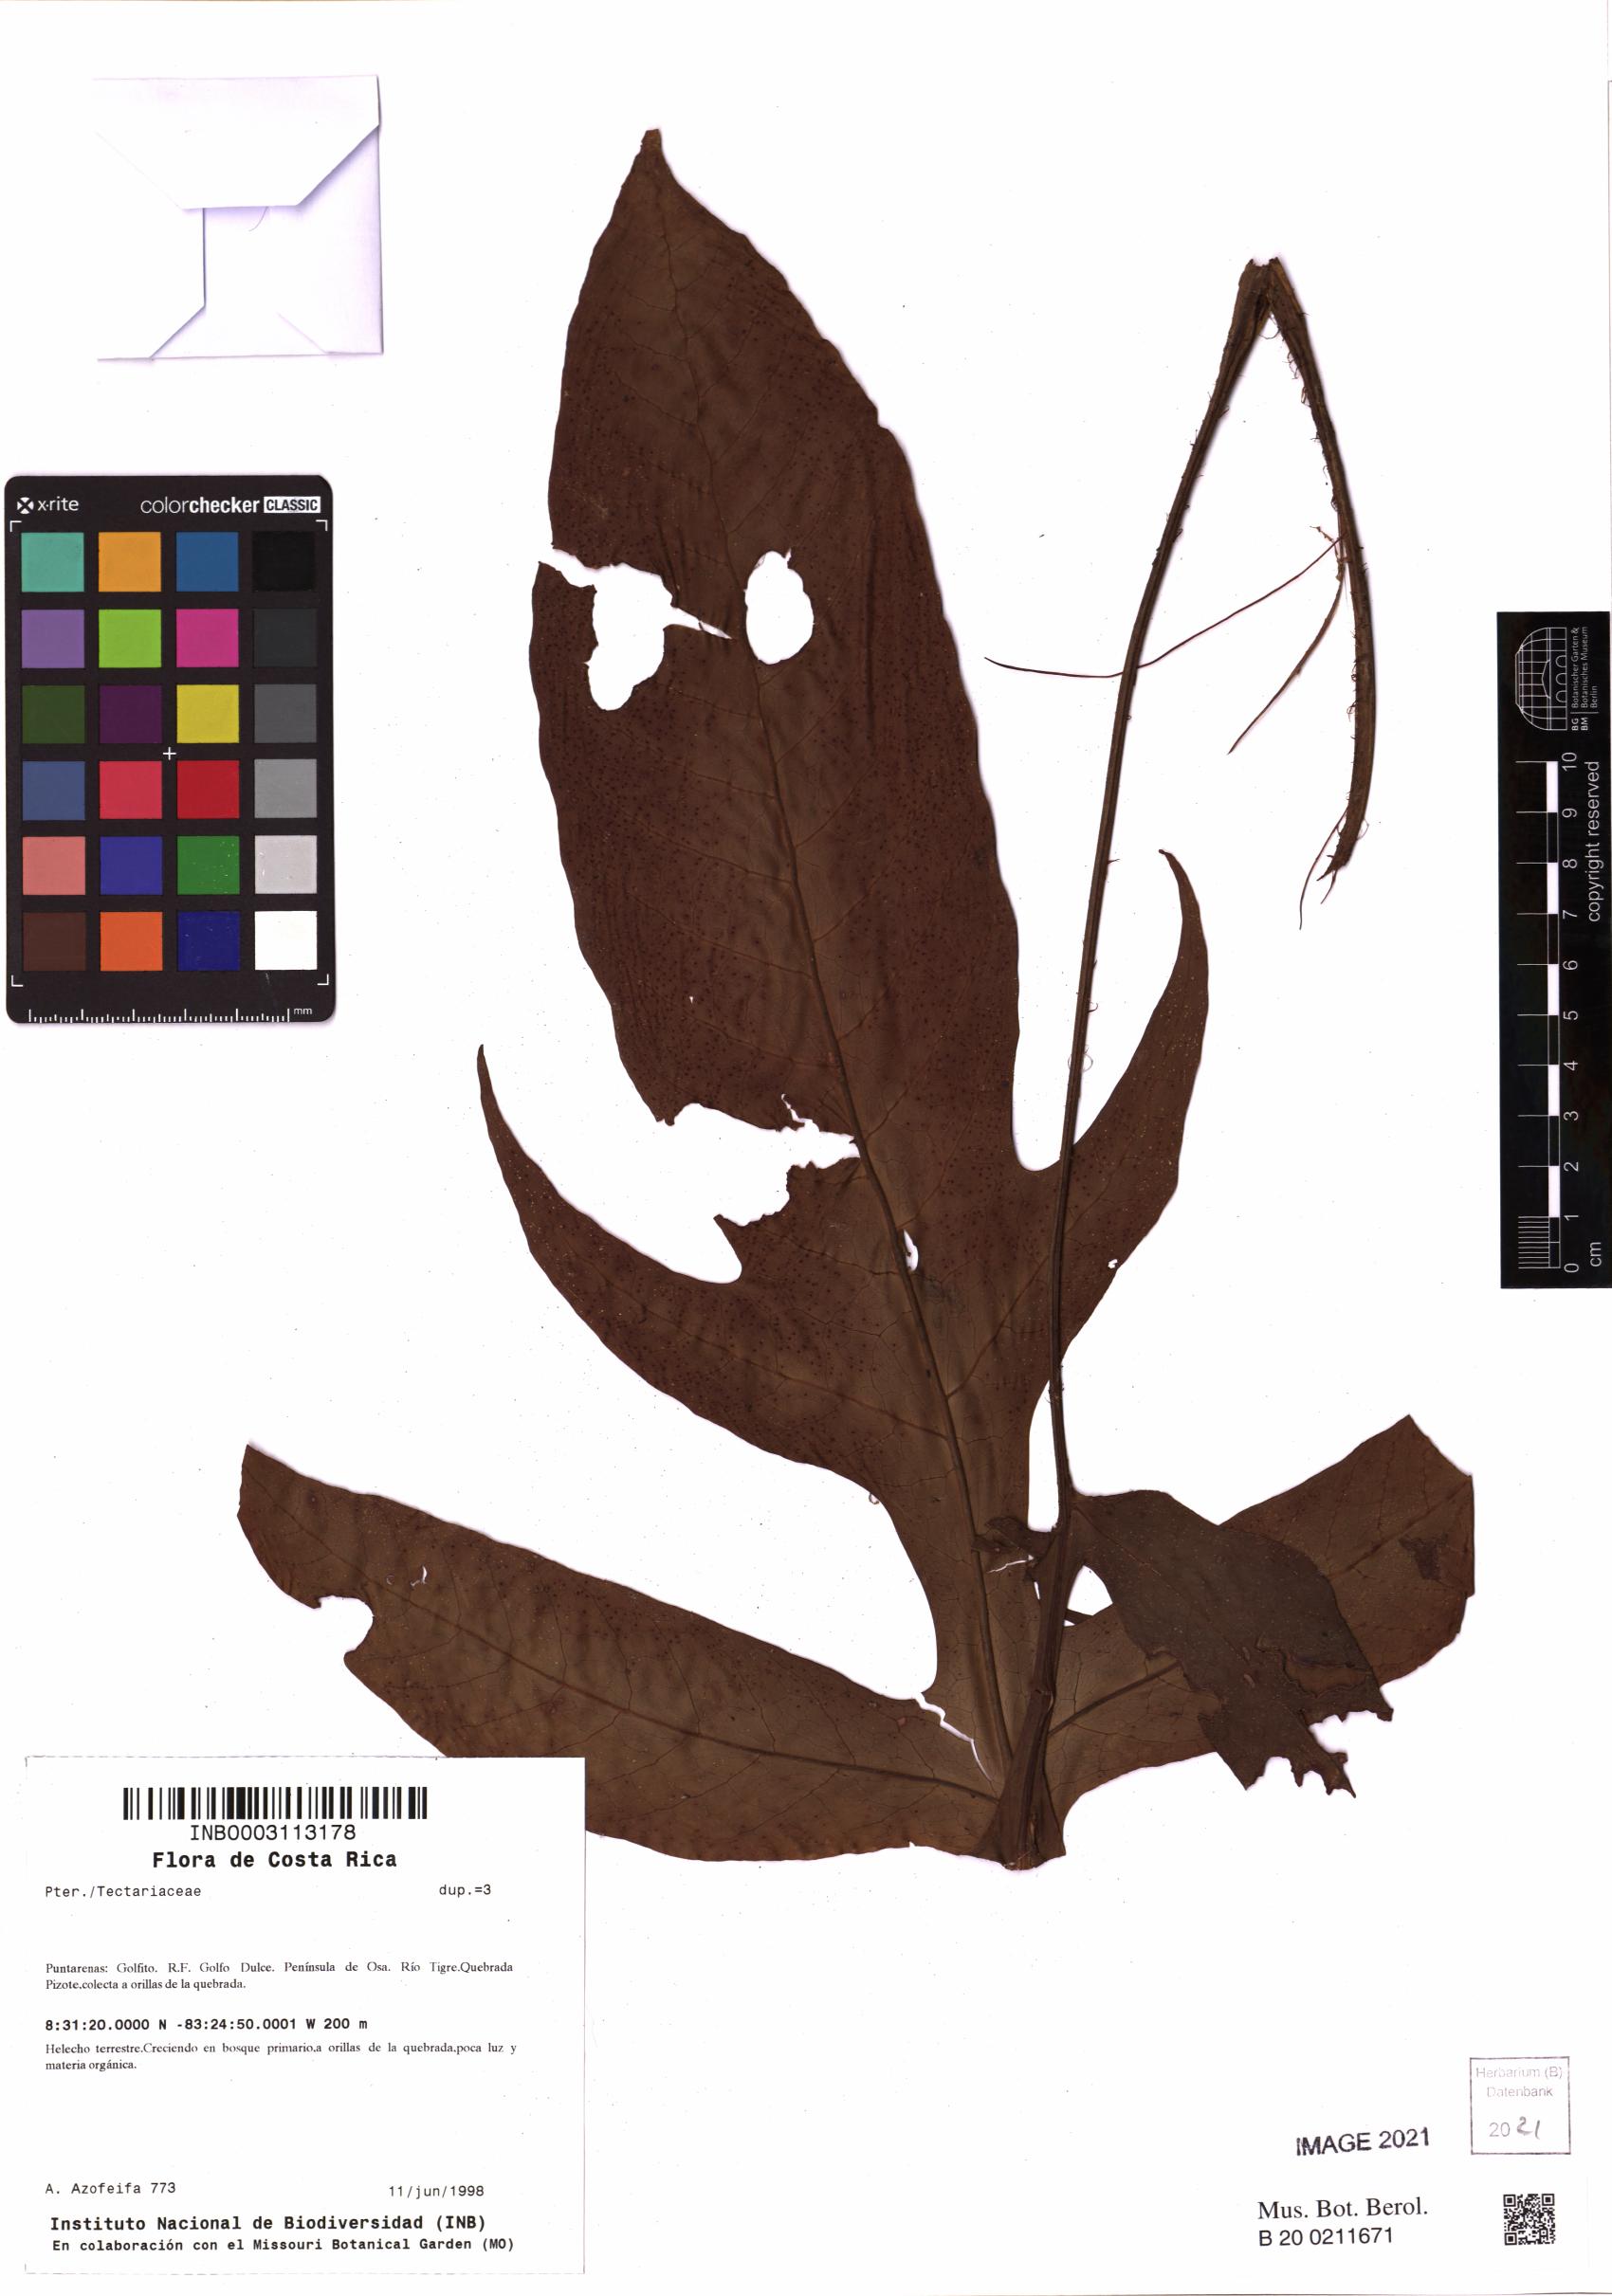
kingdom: Plantae
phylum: Tracheophyta
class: Polypodiopsida
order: Polypodiales
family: Tectariaceae
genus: Hypoderris
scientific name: Hypoderris nicotianifolia
